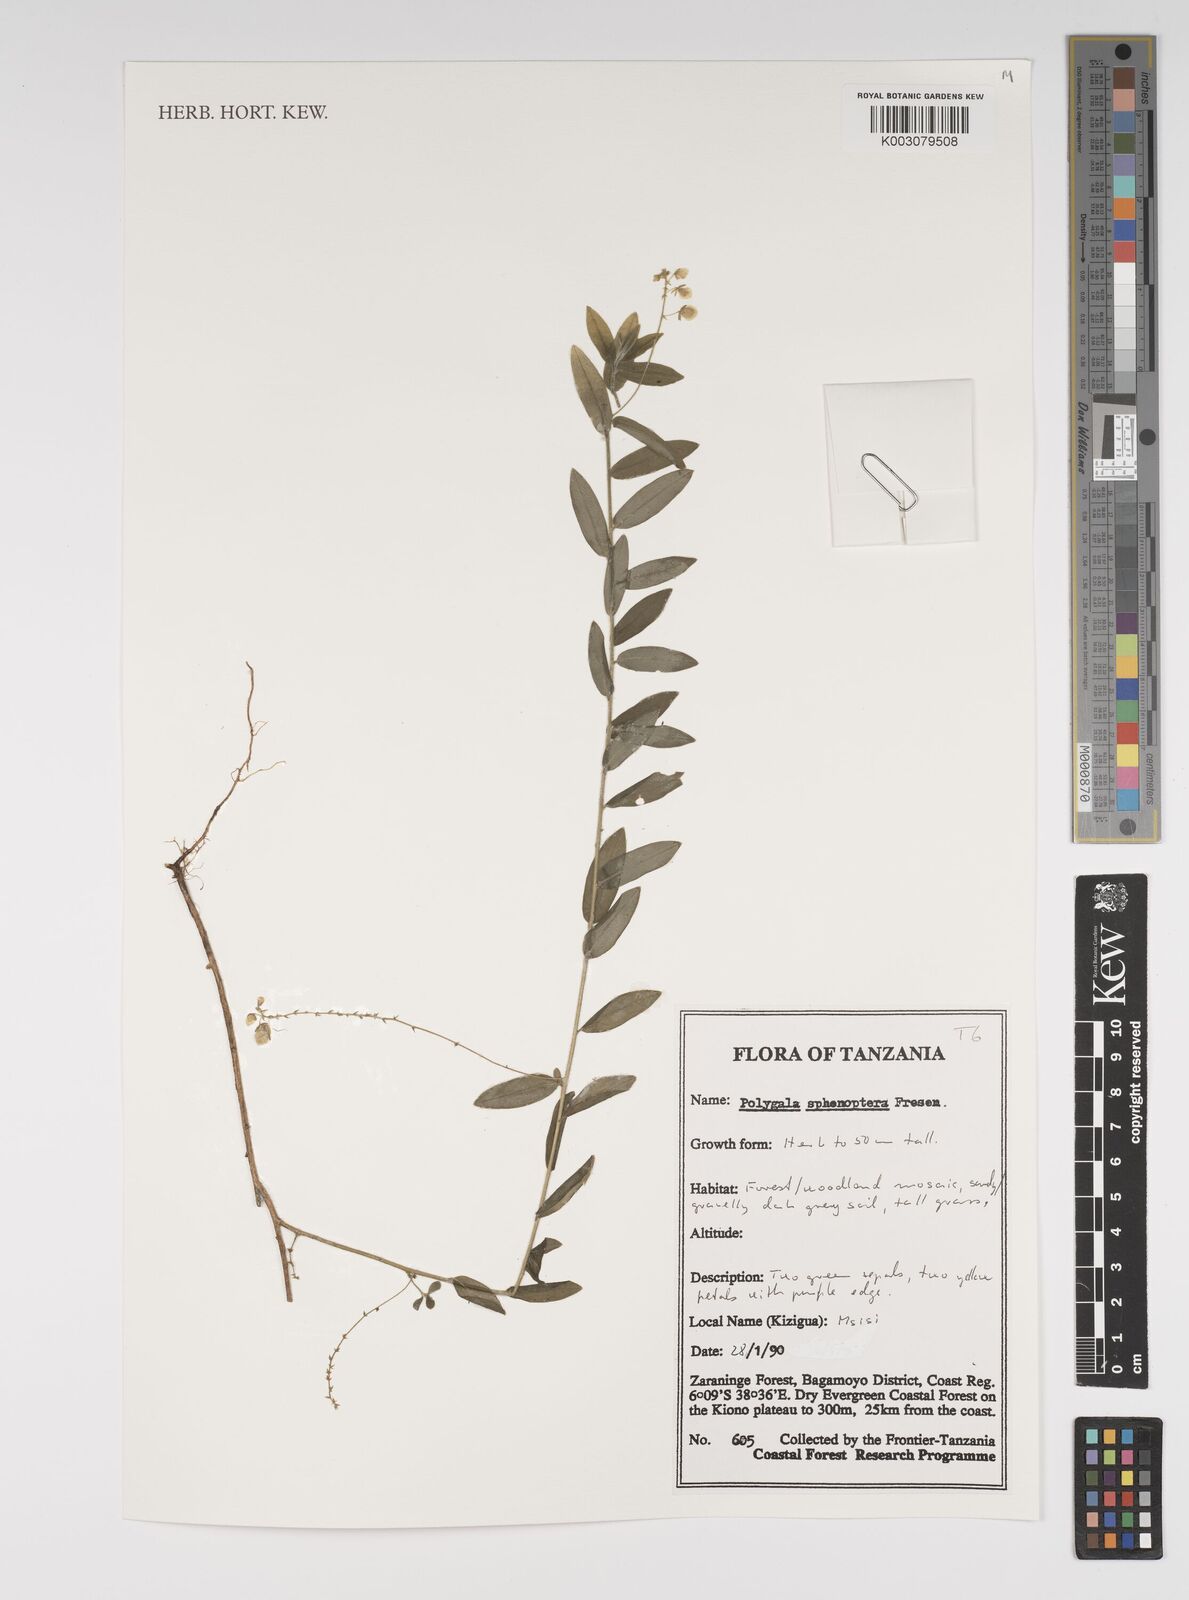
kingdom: Plantae
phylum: Tracheophyta
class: Magnoliopsida
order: Fabales
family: Polygalaceae
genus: Polygala
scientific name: Polygala sphenoptera
